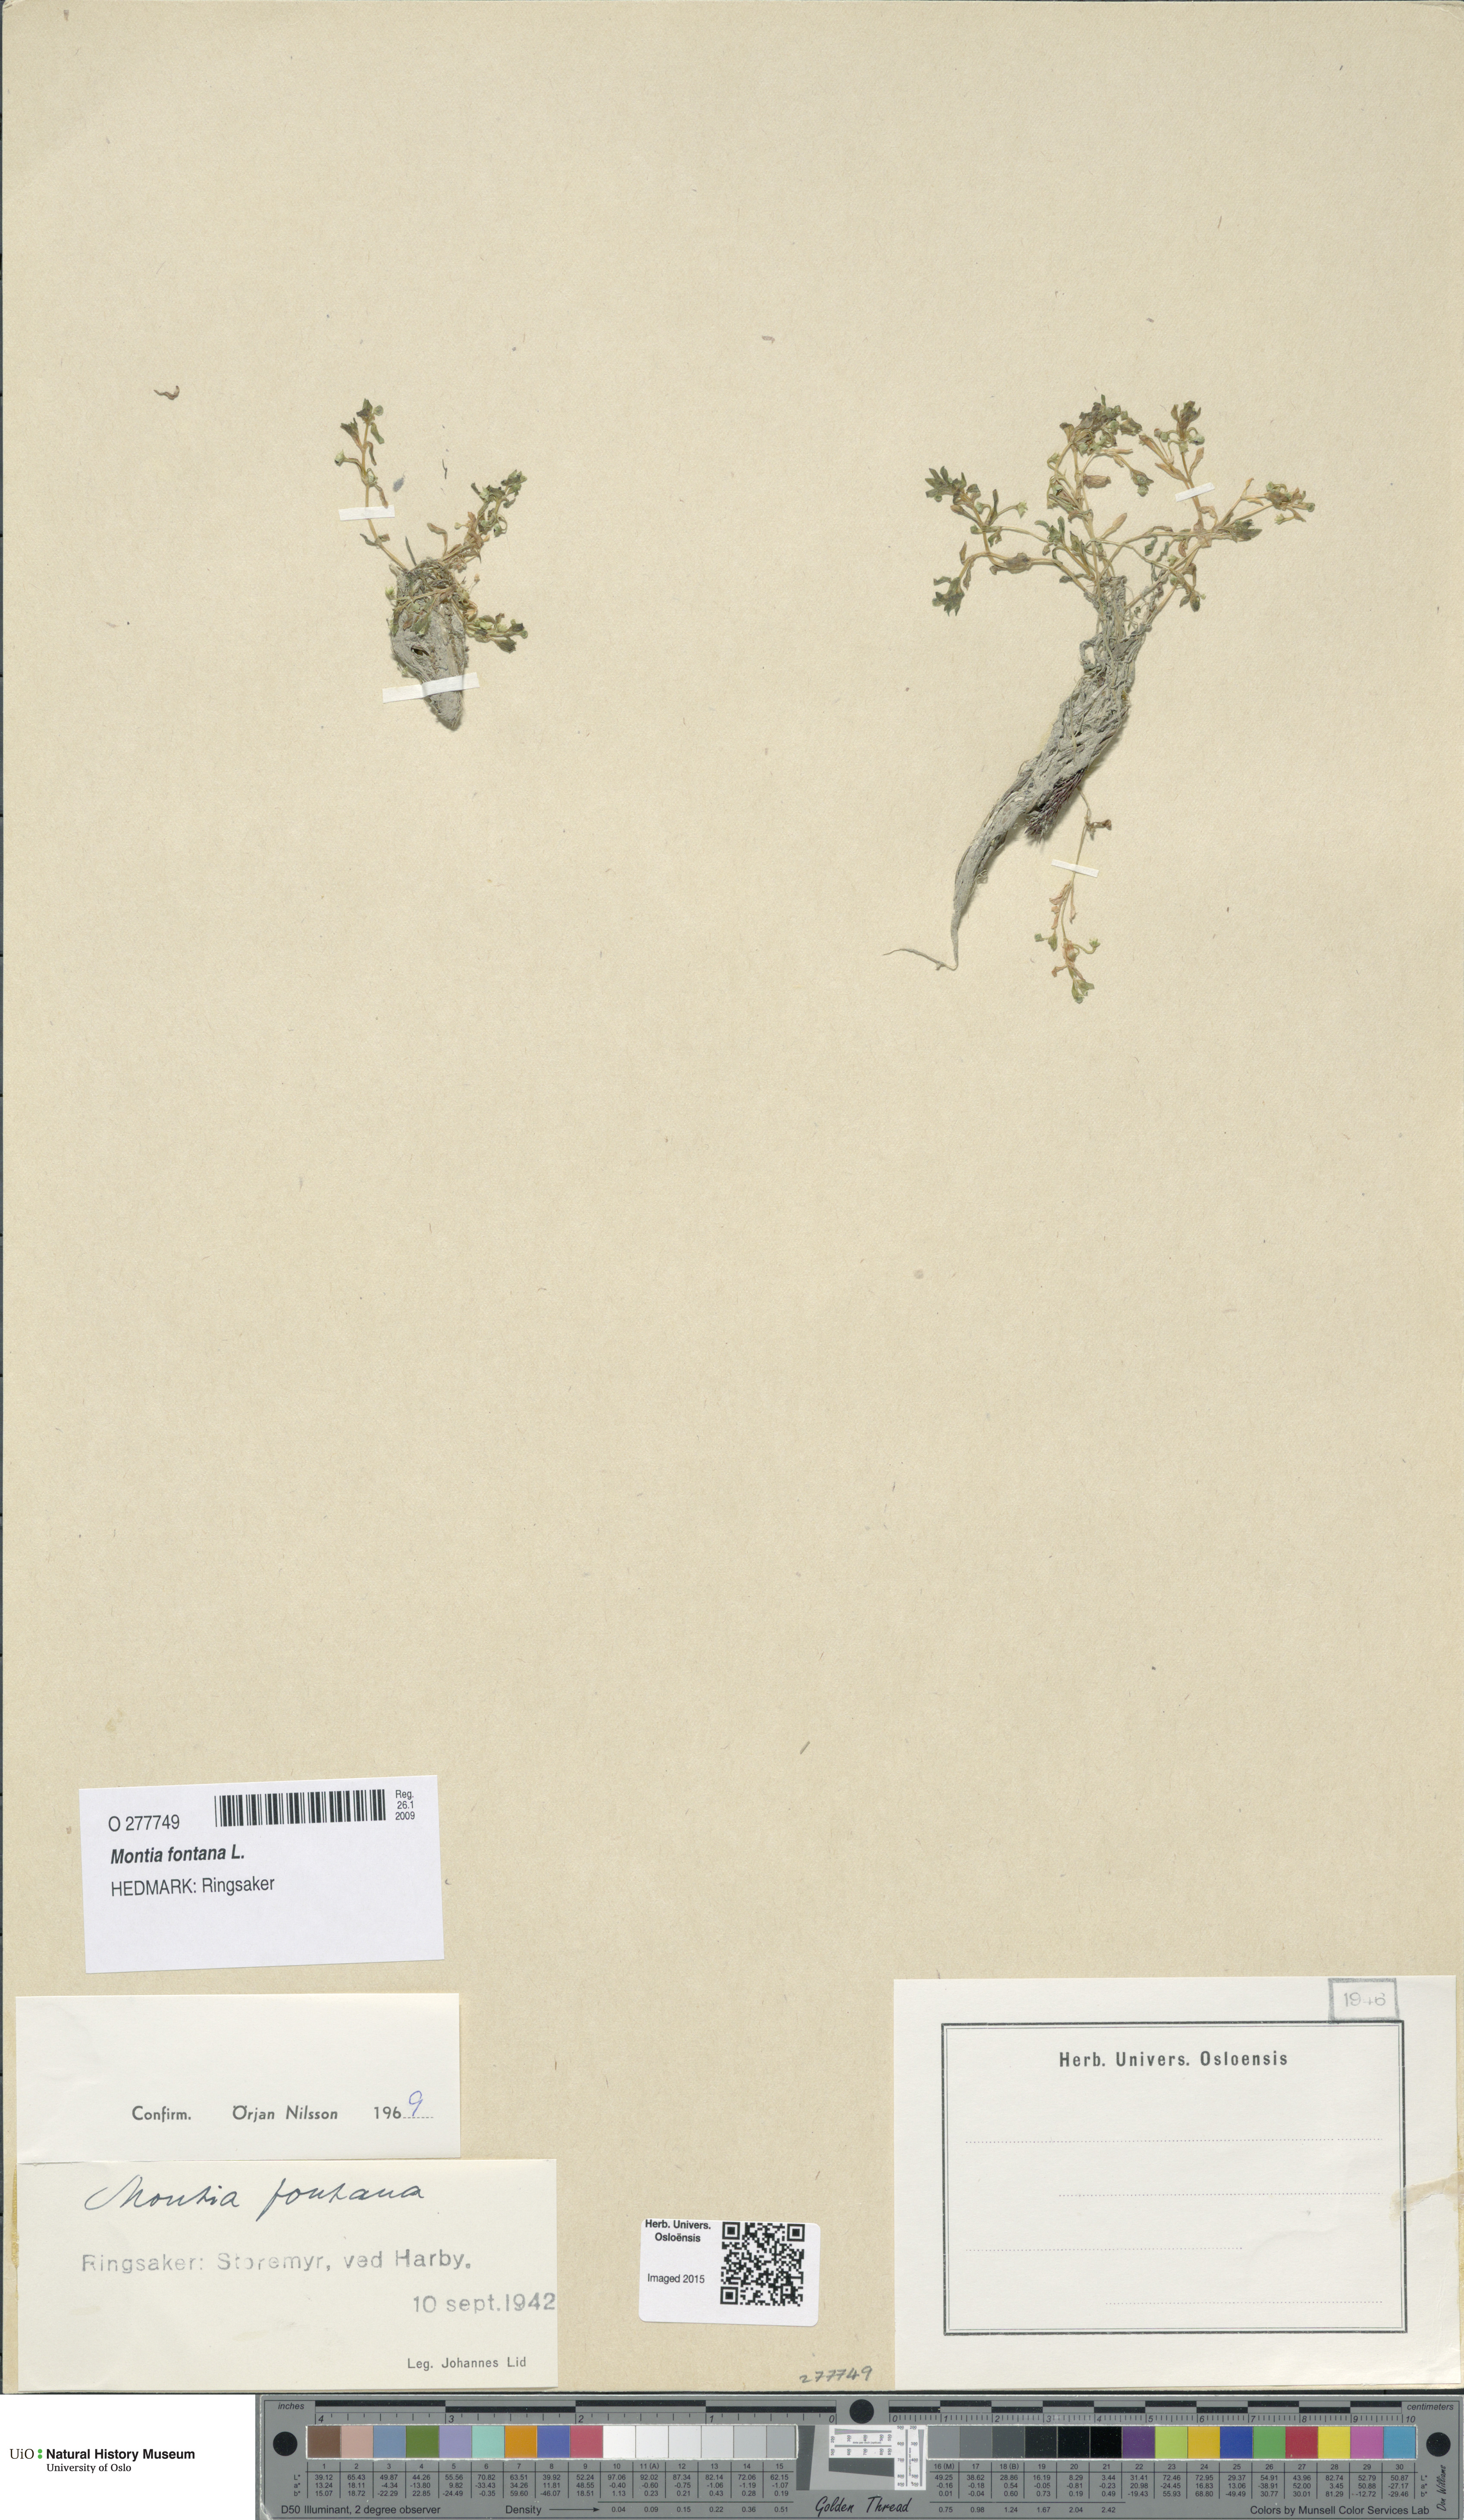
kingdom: Plantae
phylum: Tracheophyta
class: Magnoliopsida
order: Caryophyllales
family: Montiaceae
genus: Montia
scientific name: Montia fontana
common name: Blinks
